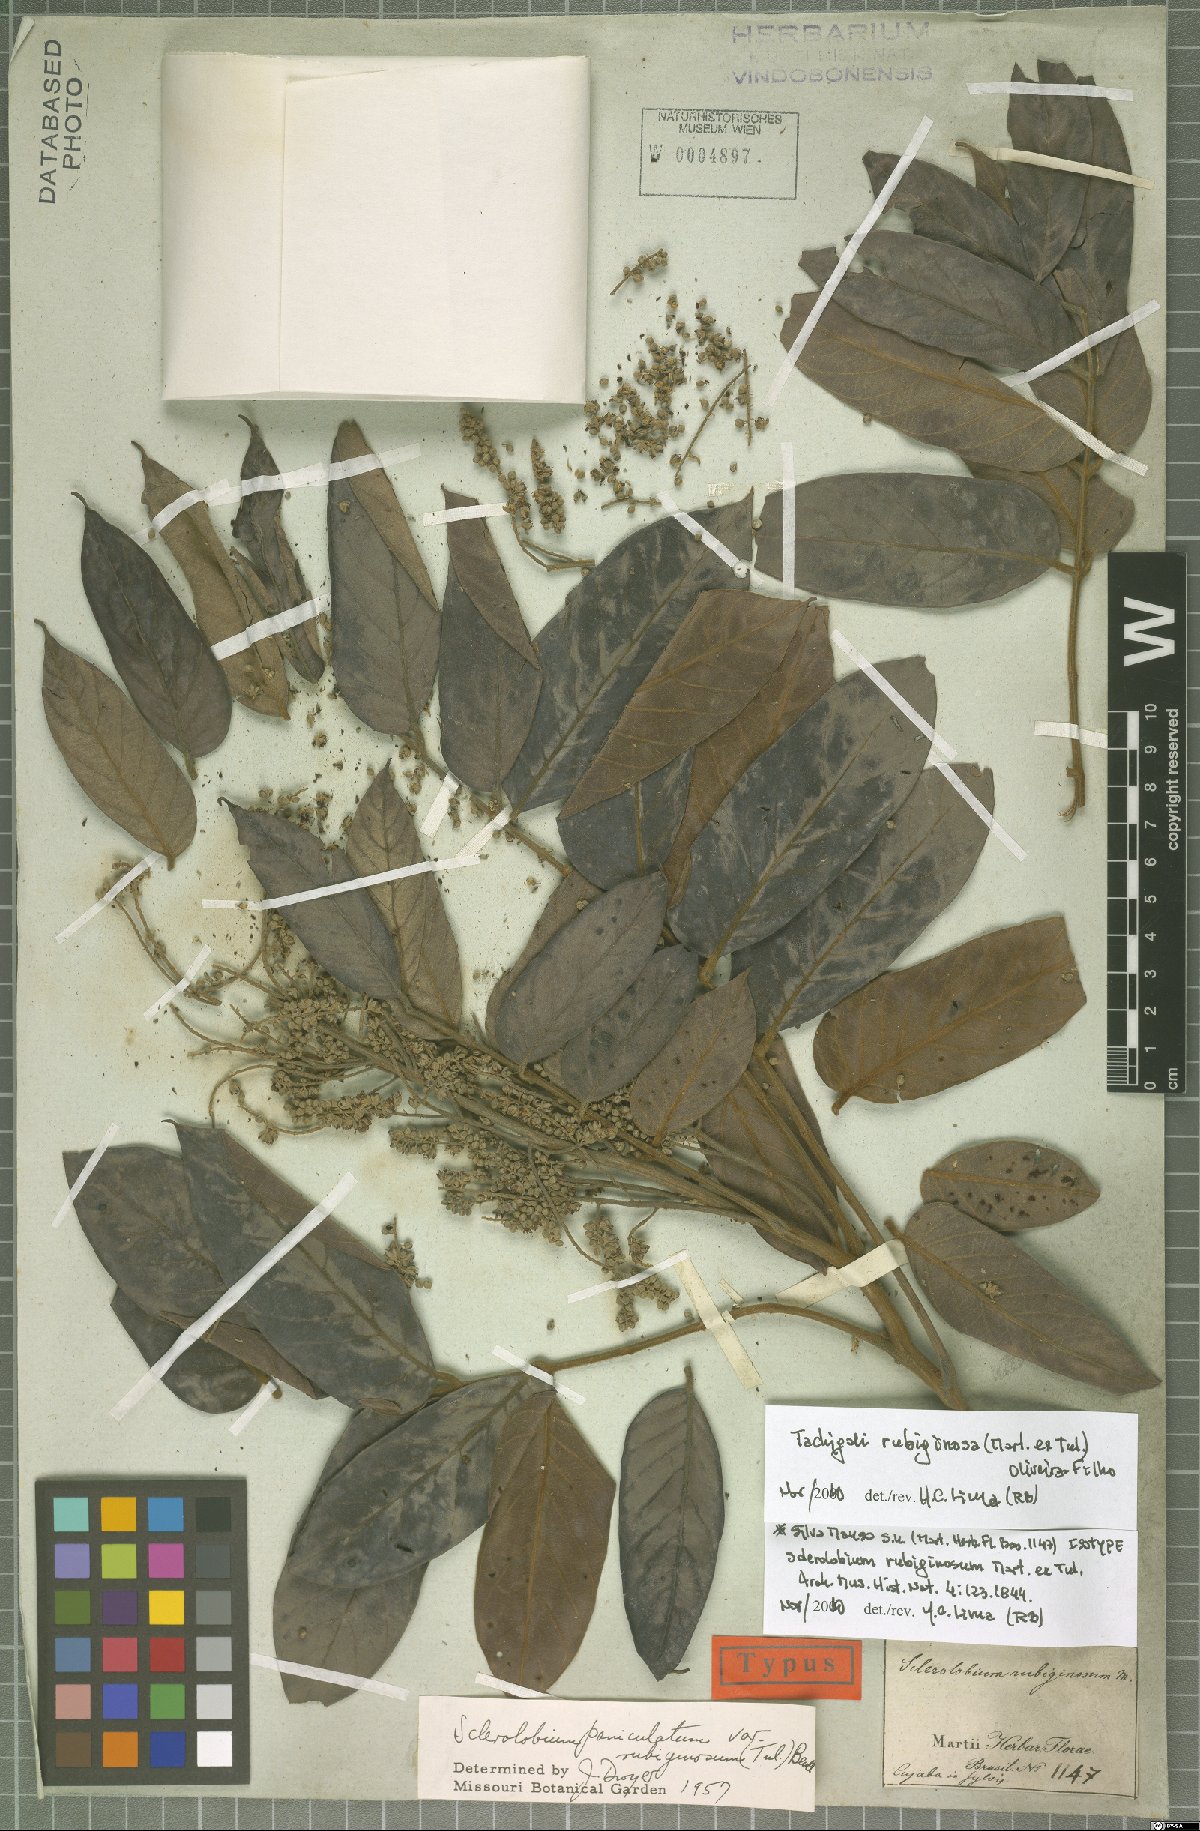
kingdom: Plantae
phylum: Tracheophyta
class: Magnoliopsida
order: Fabales
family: Fabaceae
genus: Tachigali
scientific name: Tachigali rubiginosa
